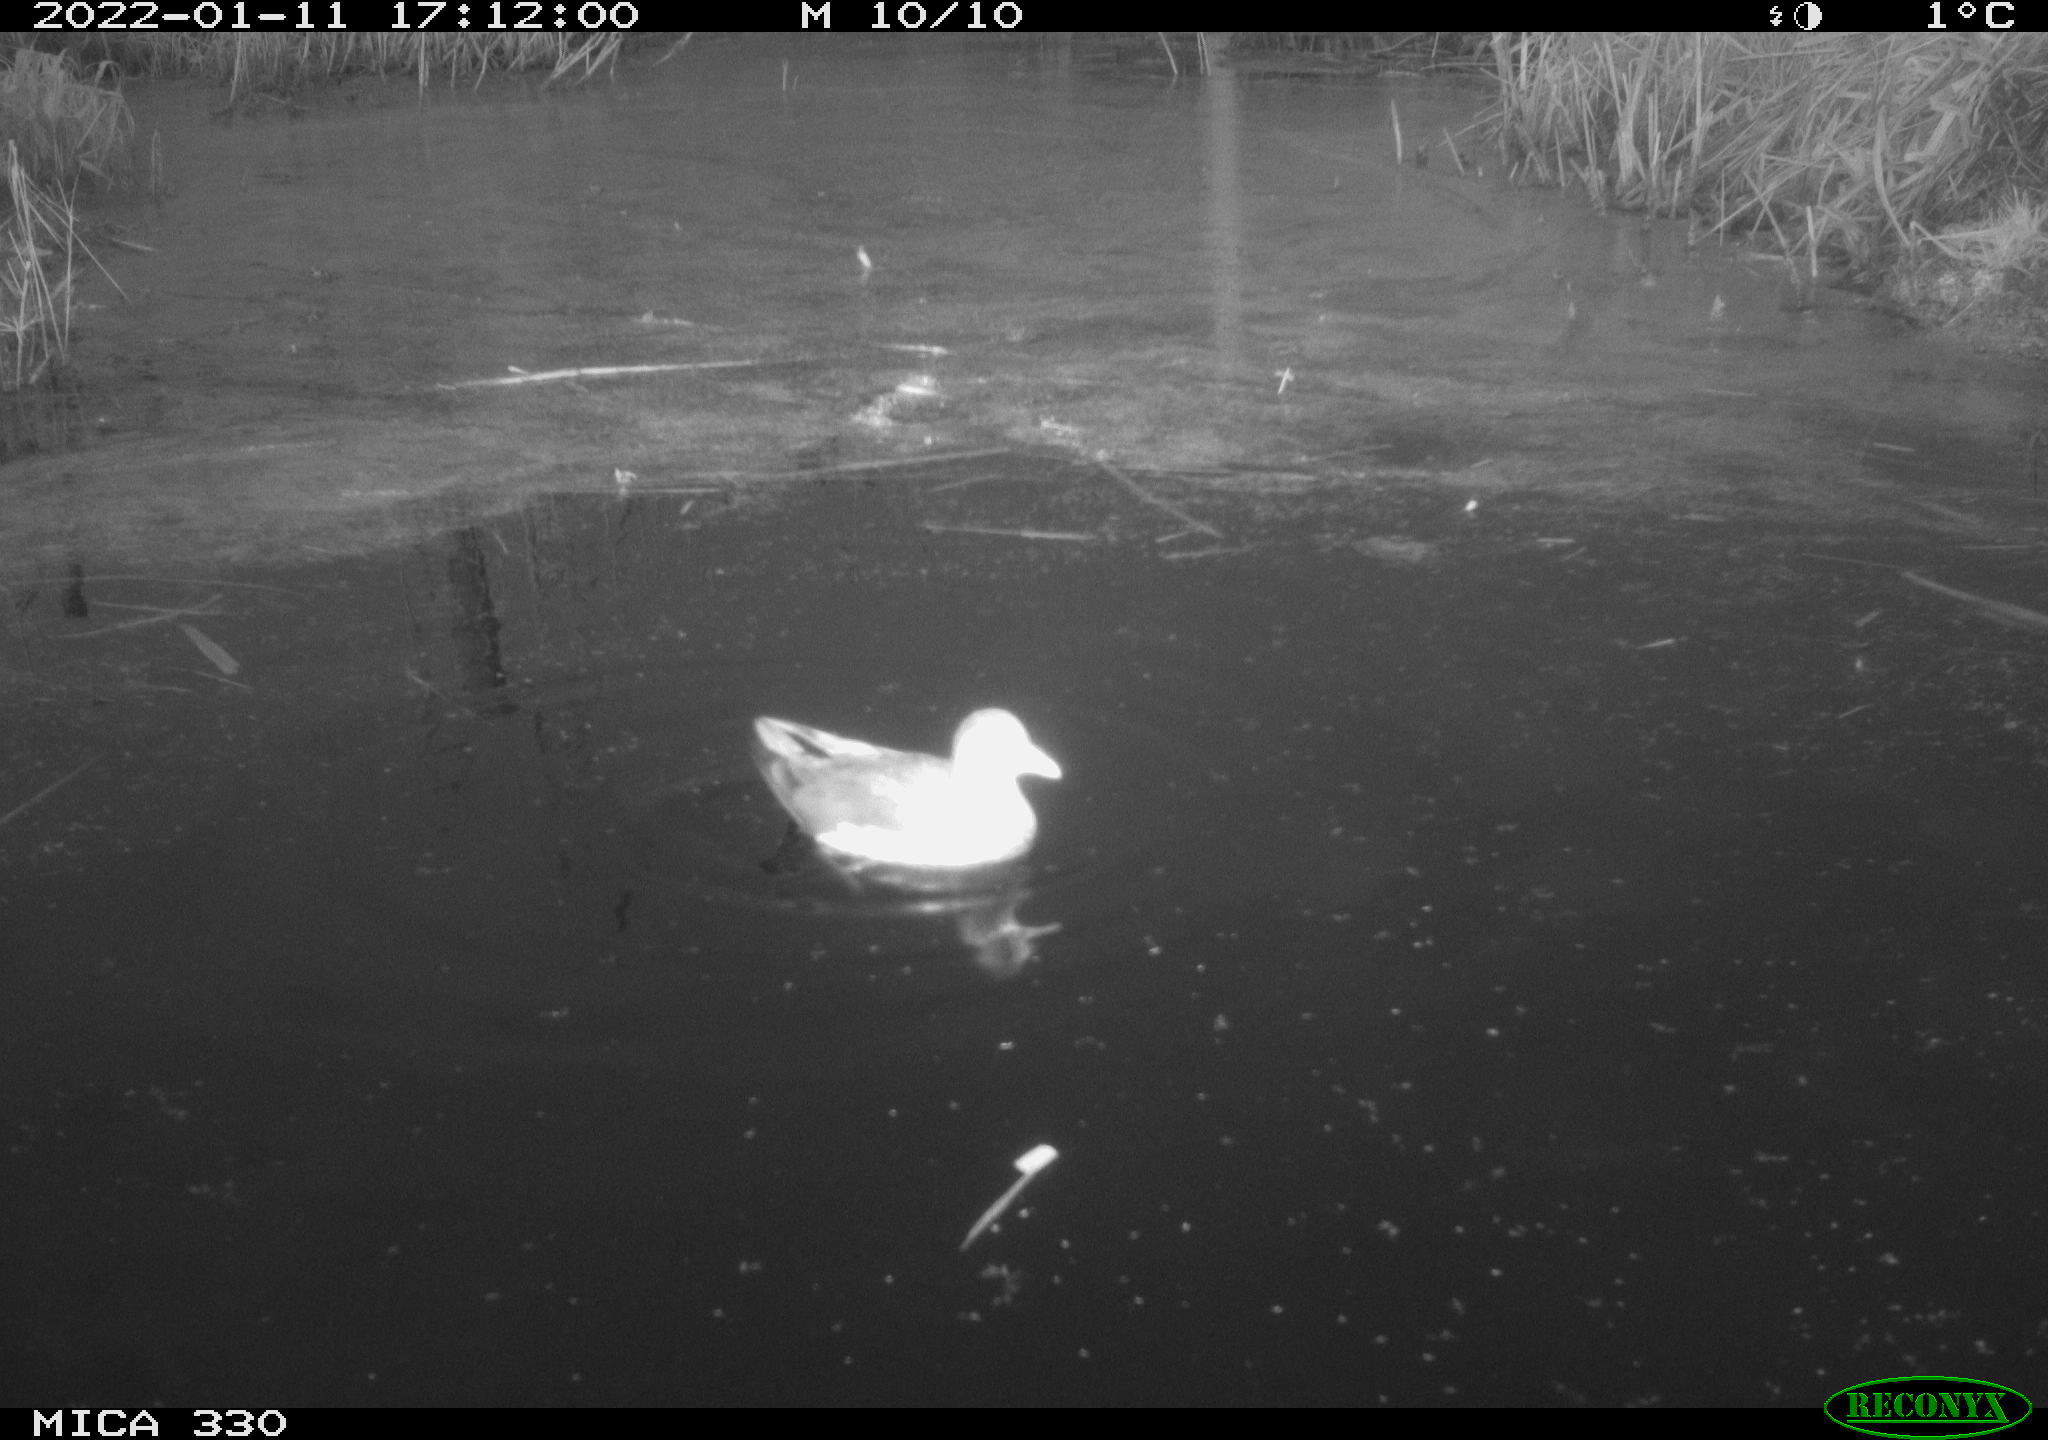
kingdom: Animalia
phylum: Chordata
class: Aves
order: Gruiformes
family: Rallidae
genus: Gallinula
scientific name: Gallinula chloropus
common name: Common moorhen
